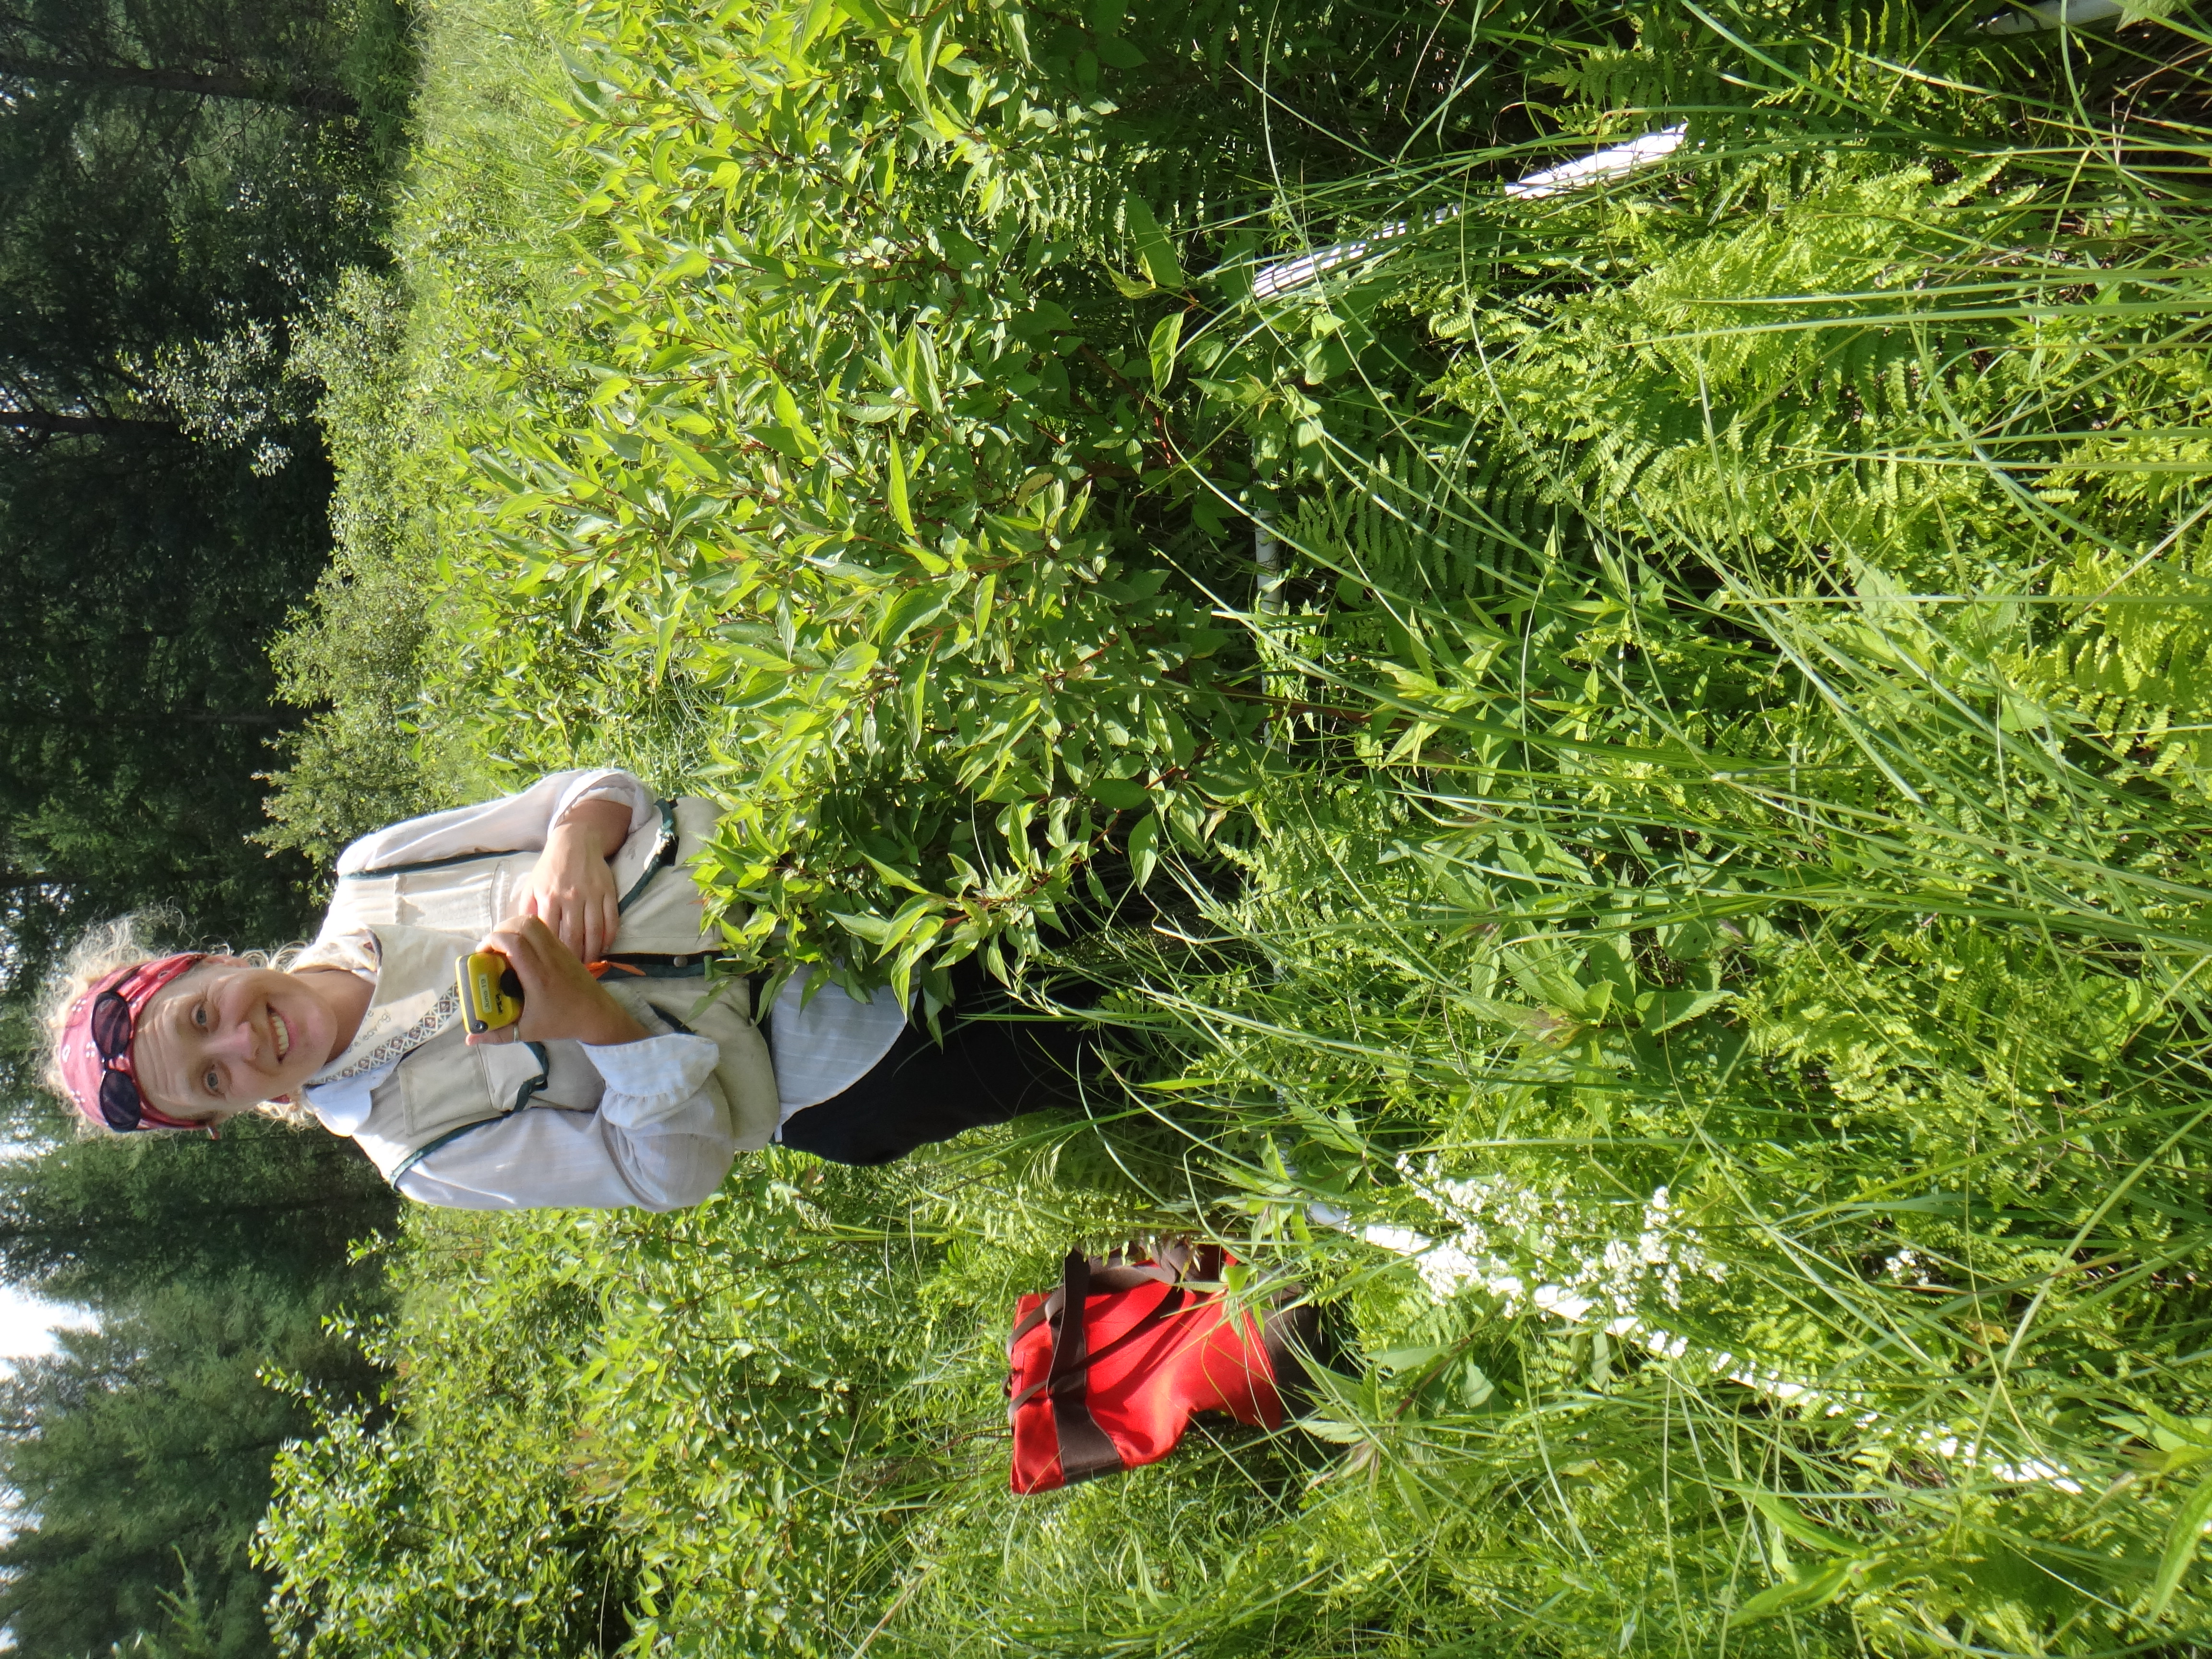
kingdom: Plantae
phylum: Tracheophyta
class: Polypodiopsida
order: Polypodiales
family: Thelypteridaceae
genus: Thelypteris
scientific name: Thelypteris palustris
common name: Marsh fern
